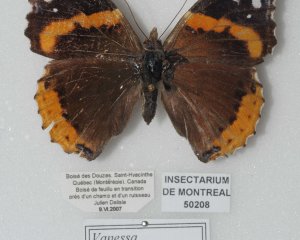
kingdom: Animalia
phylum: Arthropoda
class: Insecta
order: Lepidoptera
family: Nymphalidae
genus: Vanessa
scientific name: Vanessa atalanta
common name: Red Admiral
